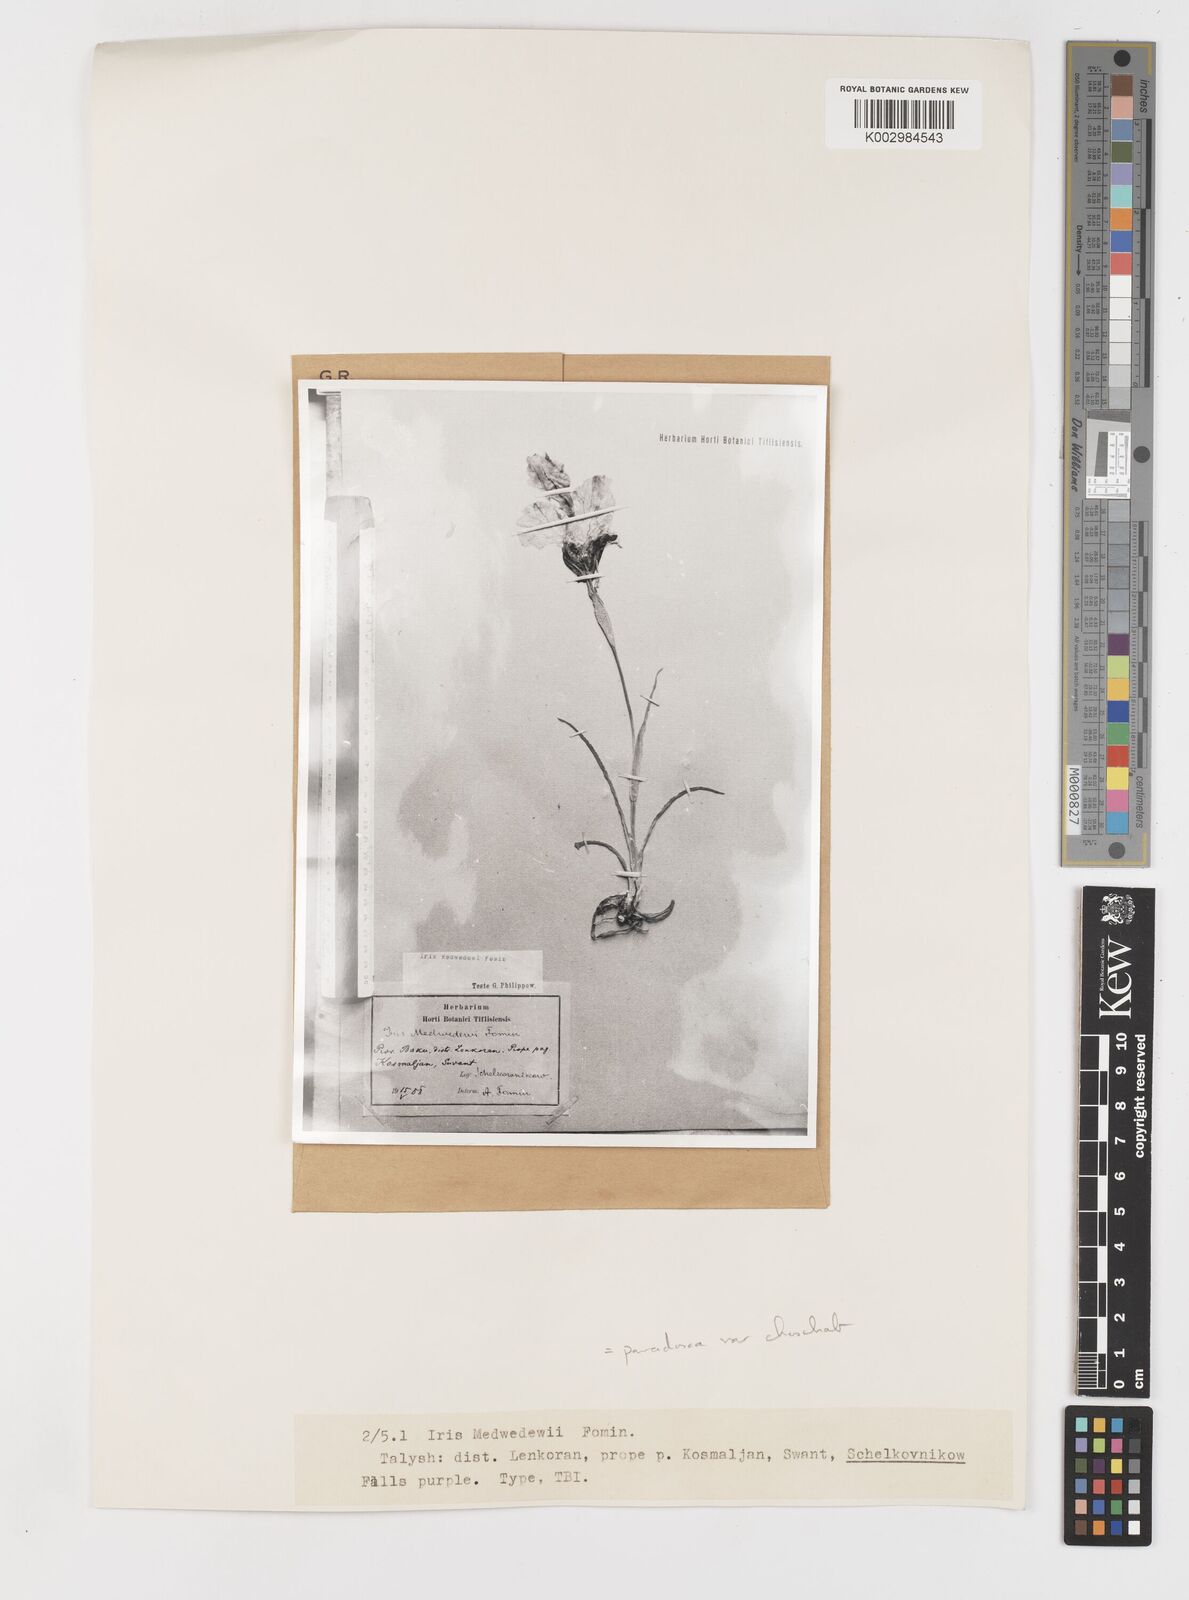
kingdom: Plantae
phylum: Tracheophyta
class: Liliopsida
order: Asparagales
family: Iridaceae
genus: Iris
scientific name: Iris paradoxa
